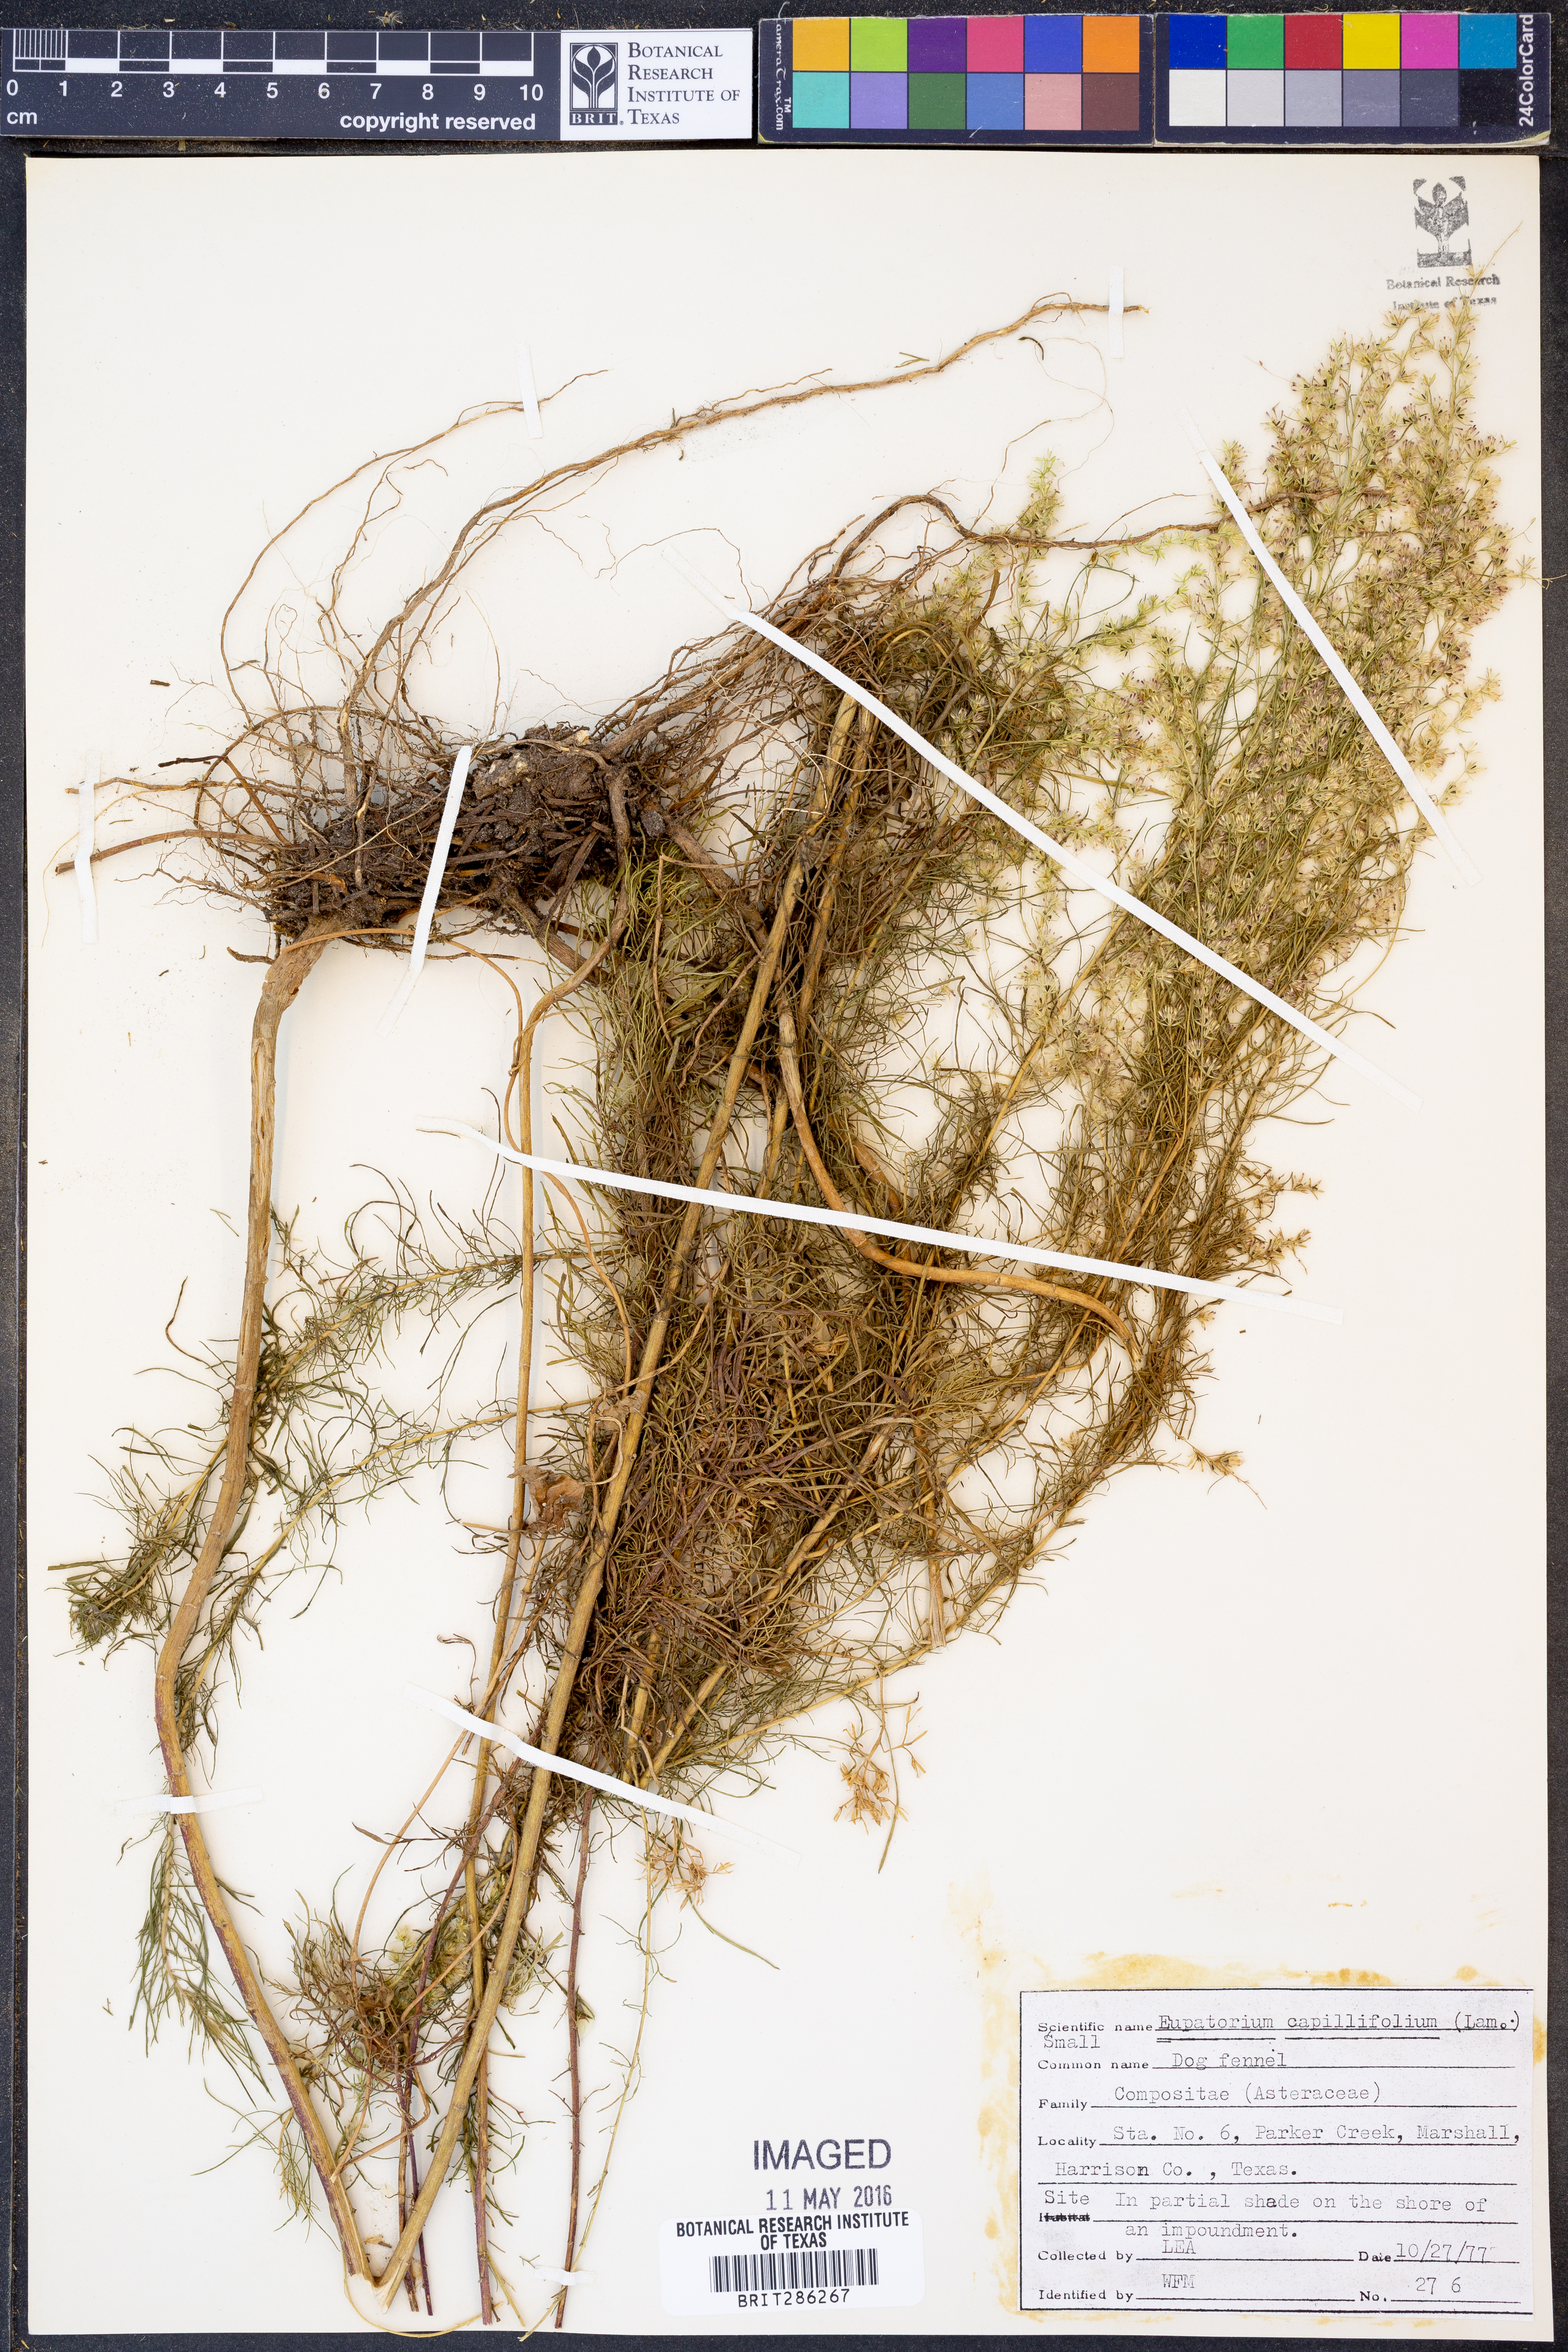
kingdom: Plantae
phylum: Tracheophyta
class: Magnoliopsida
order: Asterales
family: Asteraceae
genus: Eupatorium
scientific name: Eupatorium capillifolium
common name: Dog-fennel
